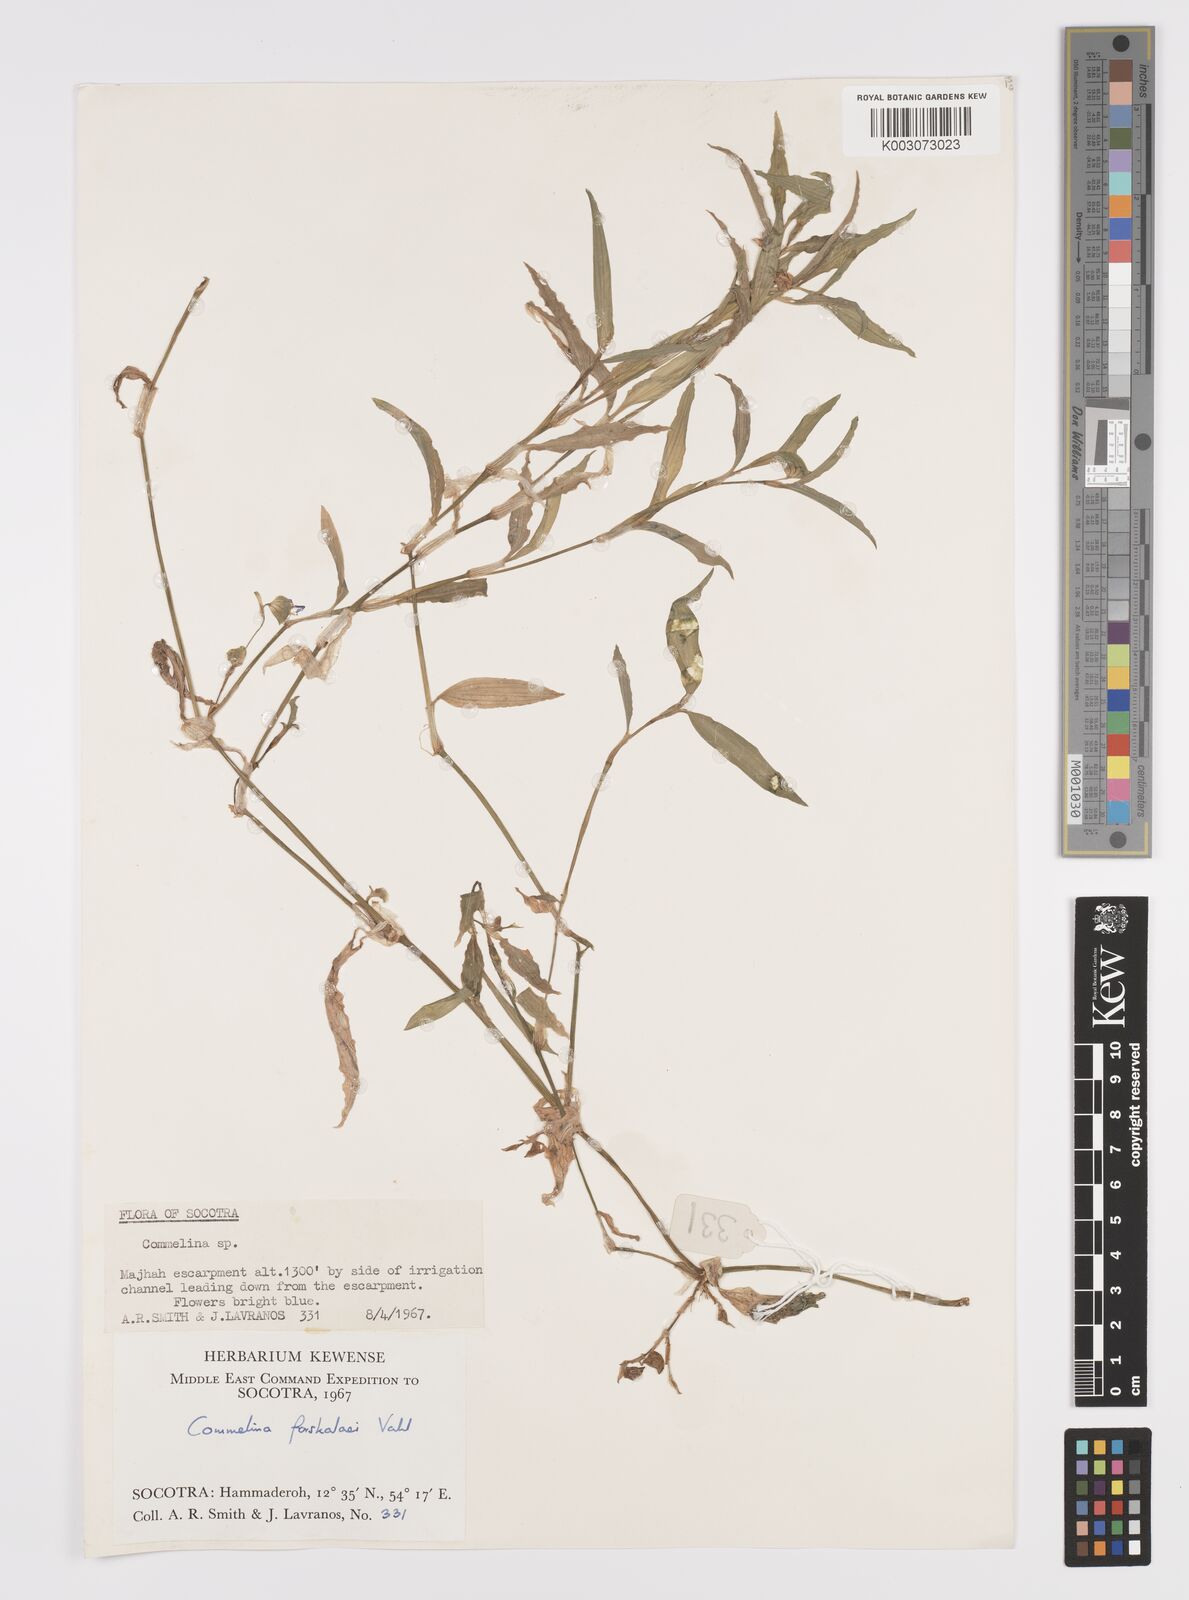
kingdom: Plantae
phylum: Tracheophyta
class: Liliopsida
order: Commelinales
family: Commelinaceae
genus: Commelina
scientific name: Commelina forskaolii
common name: Rat's ear
